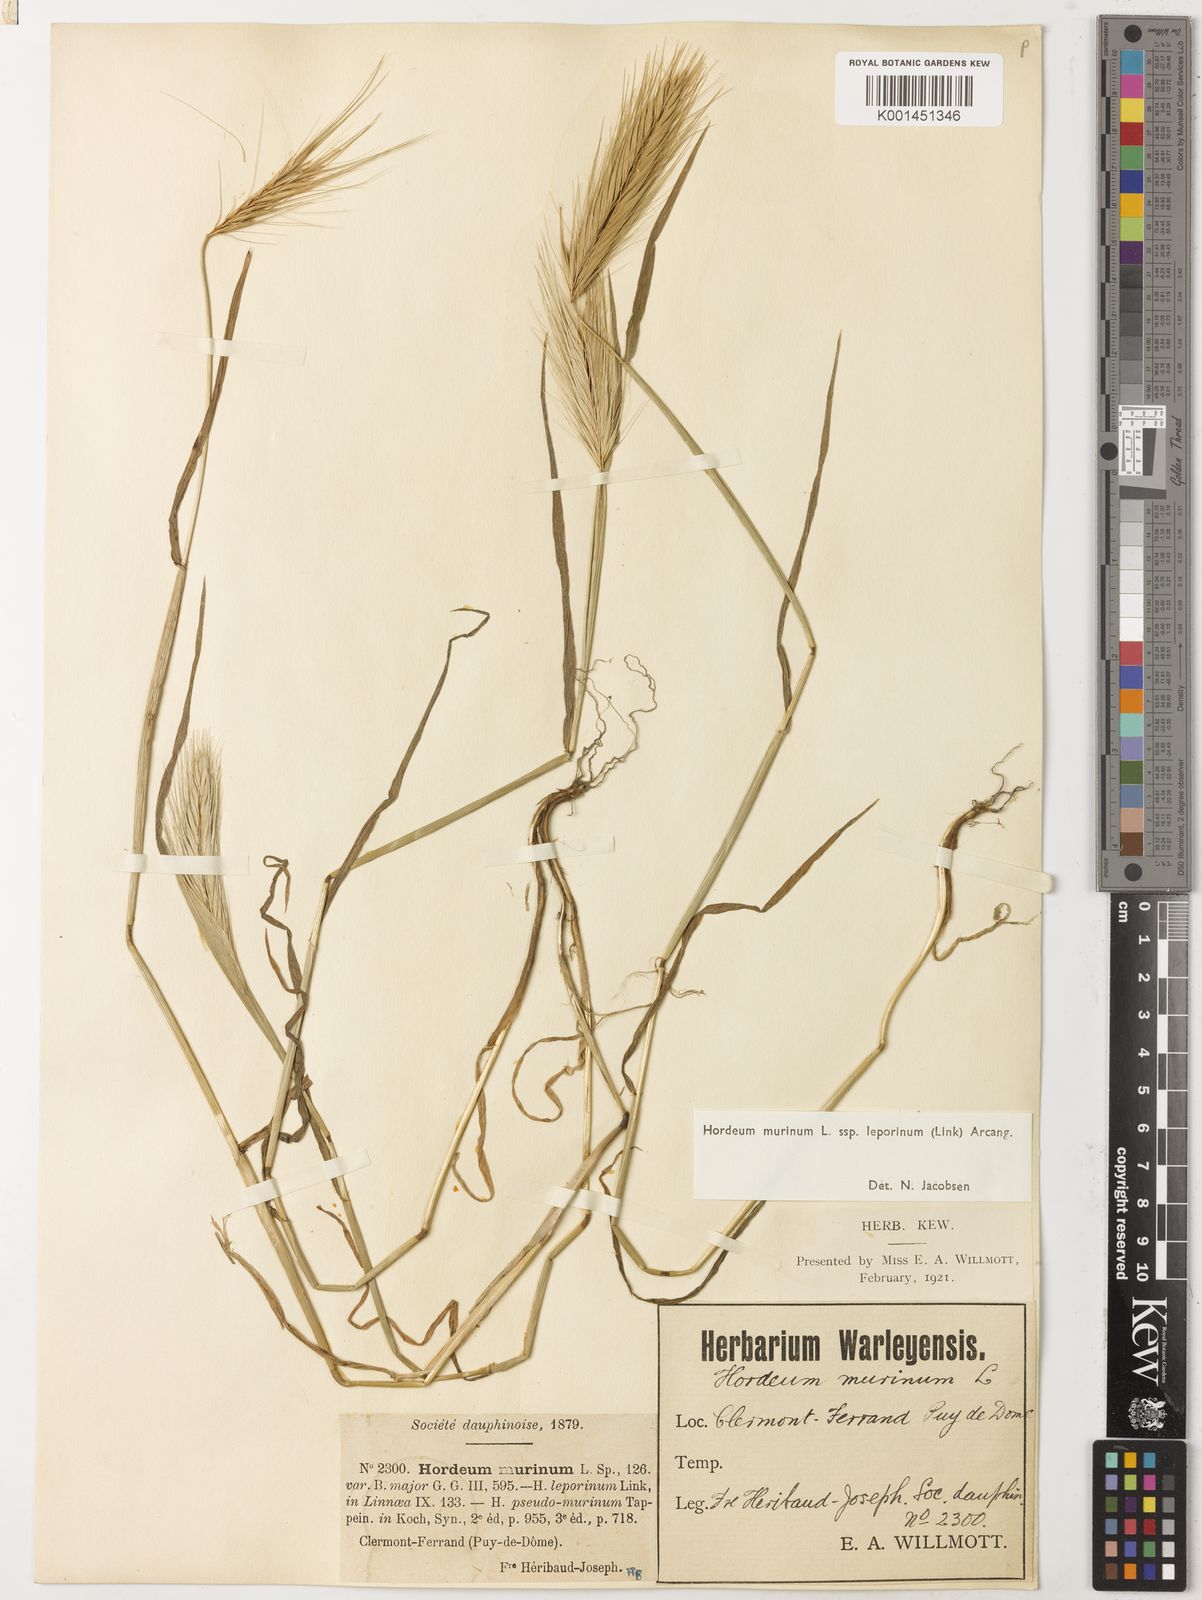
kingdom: Plantae
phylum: Tracheophyta
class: Liliopsida
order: Poales
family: Poaceae
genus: Hordeum
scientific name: Hordeum murinum
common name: Wall barley
